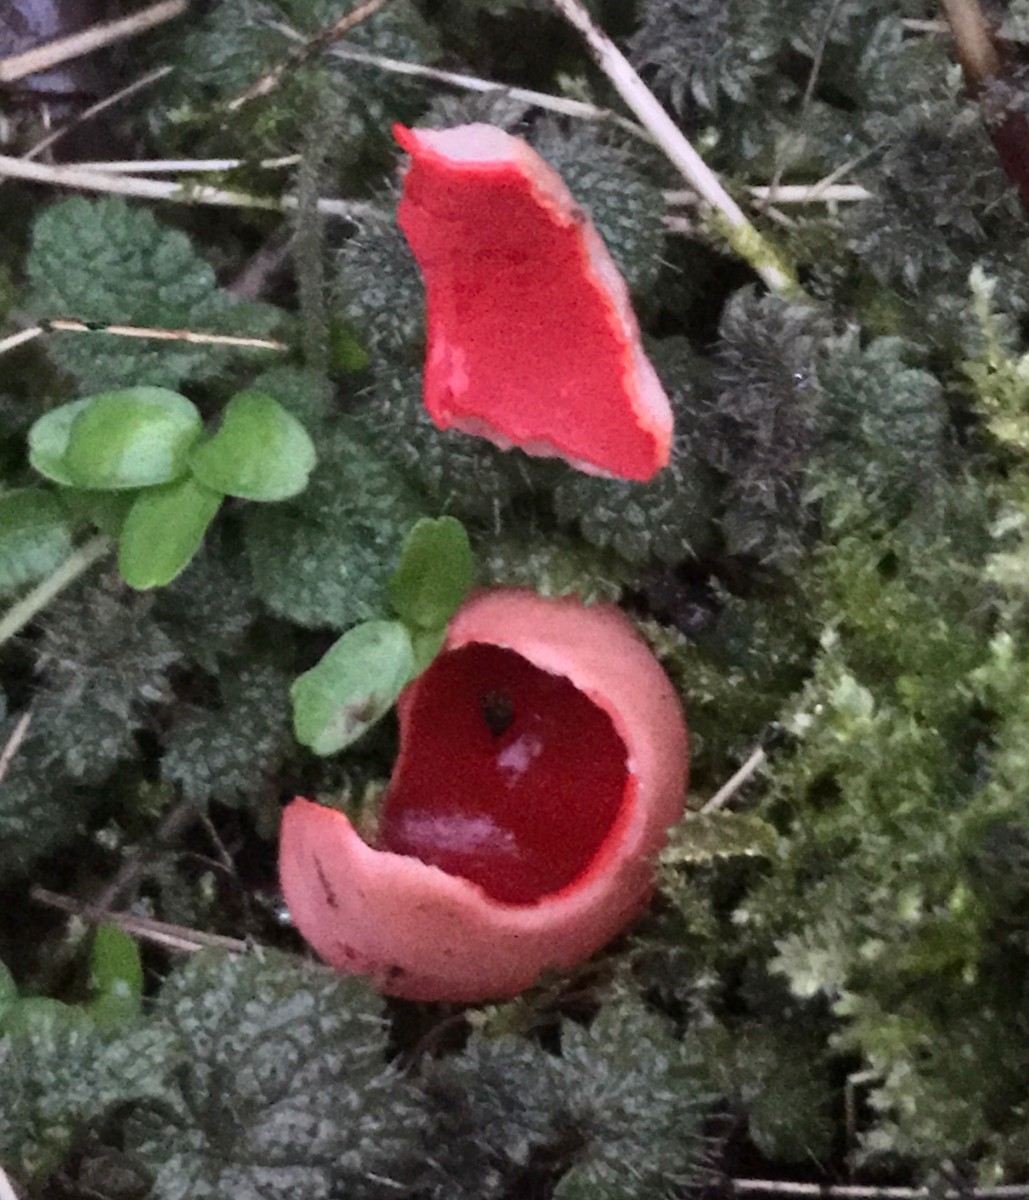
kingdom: Fungi
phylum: Ascomycota
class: Pezizomycetes
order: Pezizales
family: Sarcoscyphaceae
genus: Sarcoscypha
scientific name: Sarcoscypha austriaca
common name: krølhåret pragtbæger
